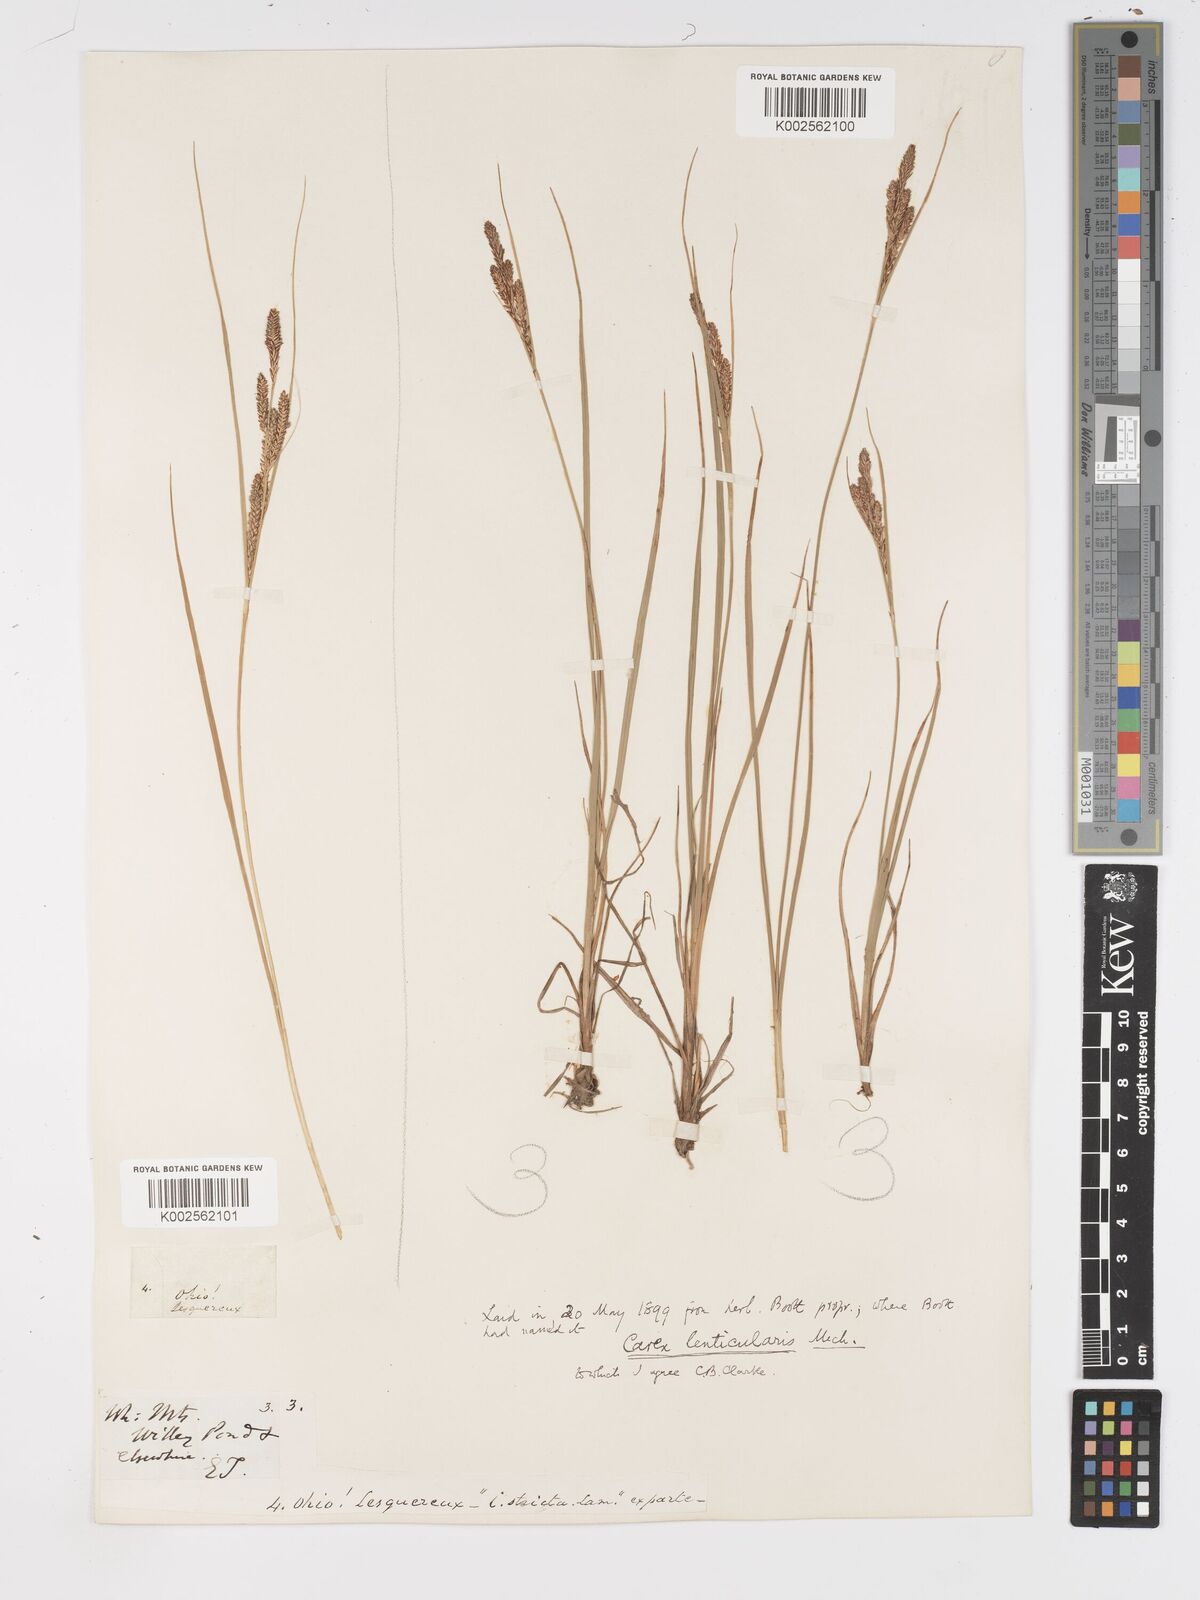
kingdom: Plantae
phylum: Tracheophyta
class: Liliopsida
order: Poales
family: Cyperaceae
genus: Carex
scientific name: Carex lenticularis
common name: Lakeshore sedge
